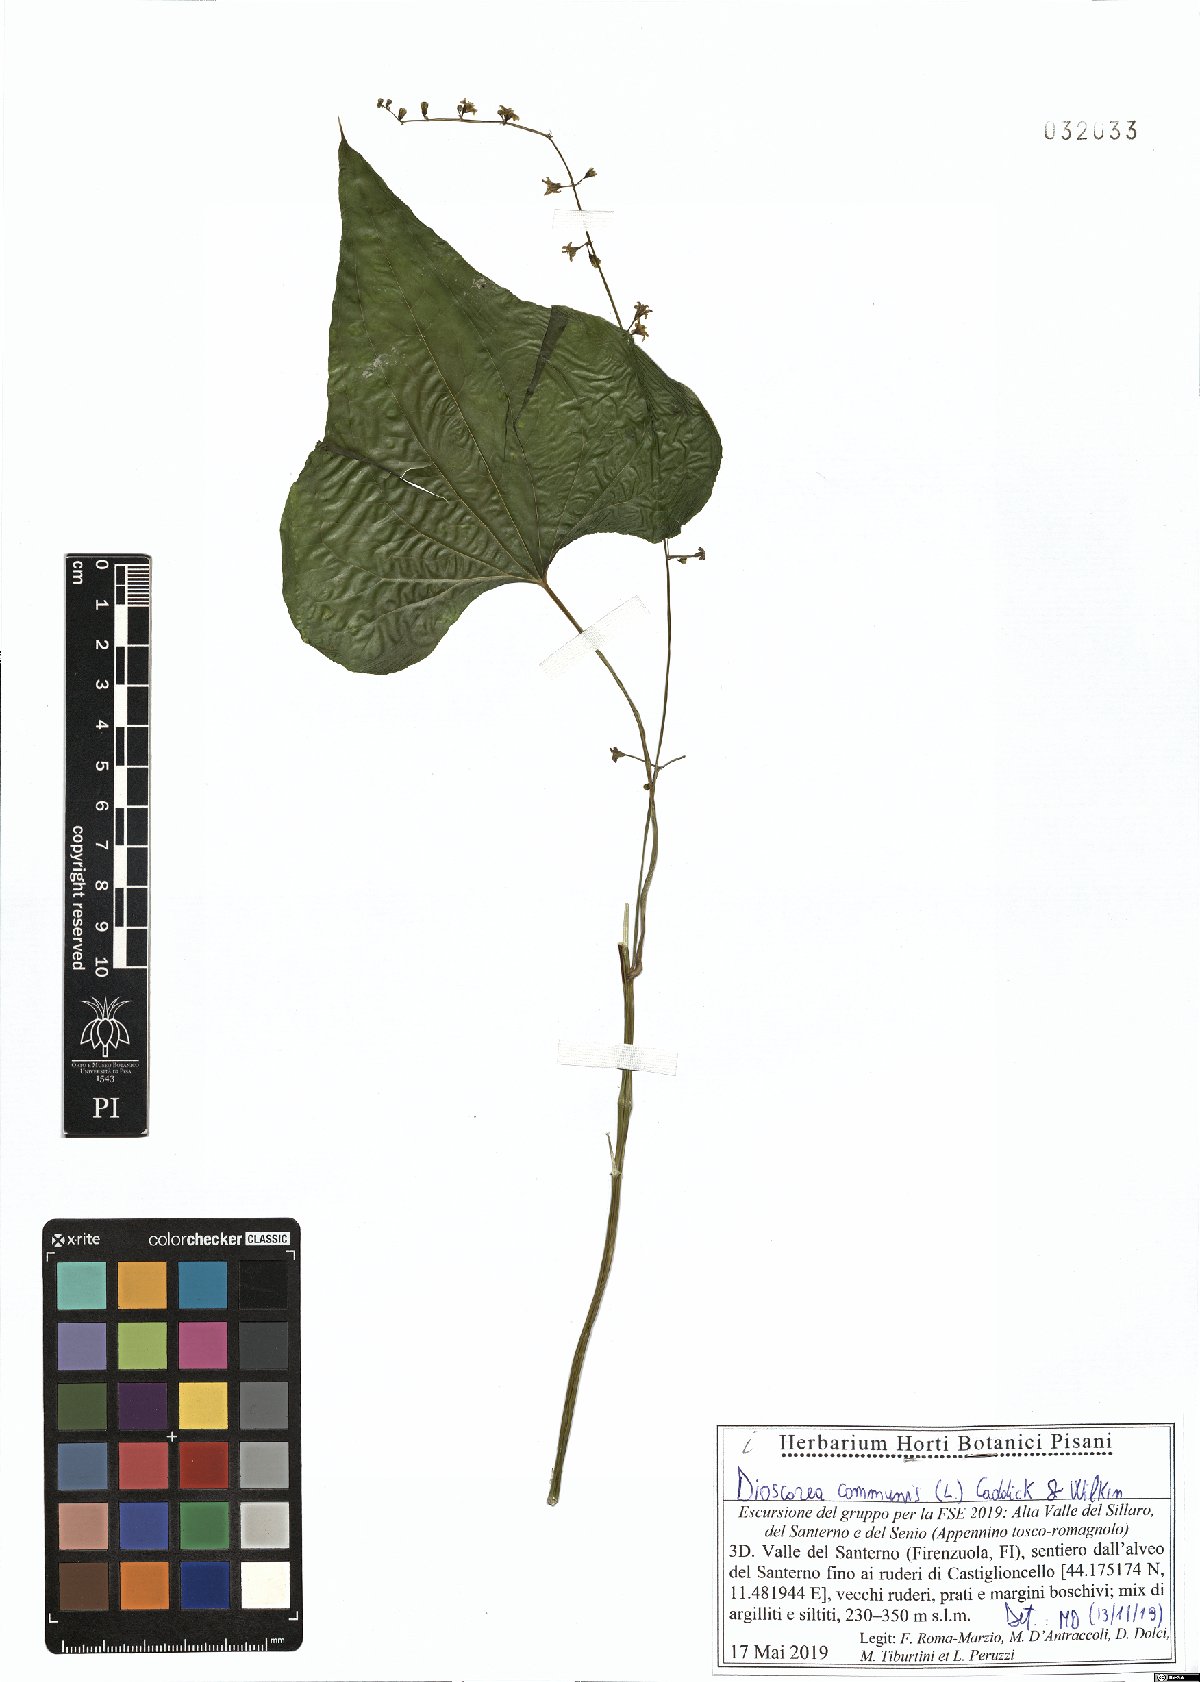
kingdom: Plantae
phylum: Tracheophyta
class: Liliopsida
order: Dioscoreales
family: Dioscoreaceae
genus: Dioscorea
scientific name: Dioscorea communis
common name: Black-bindweed
